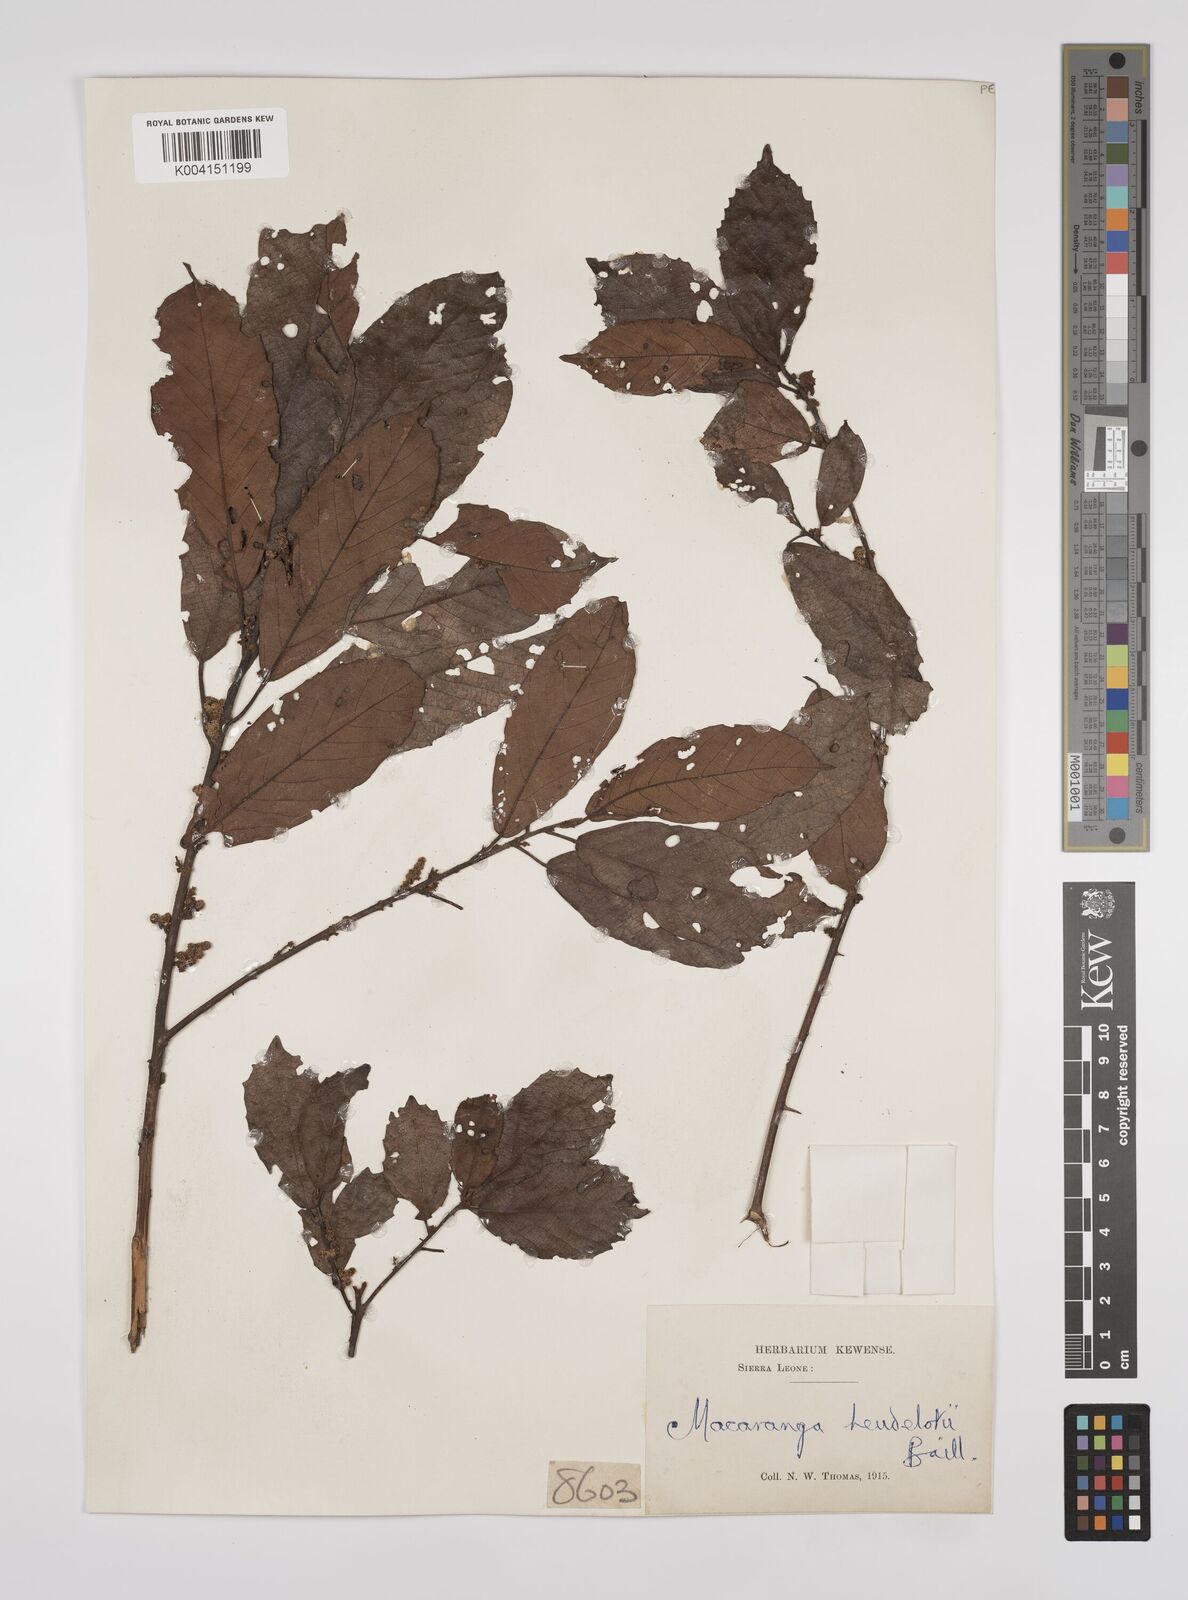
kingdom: Plantae
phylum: Tracheophyta
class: Magnoliopsida
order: Malpighiales
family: Euphorbiaceae
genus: Macaranga
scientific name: Macaranga heudelotii
